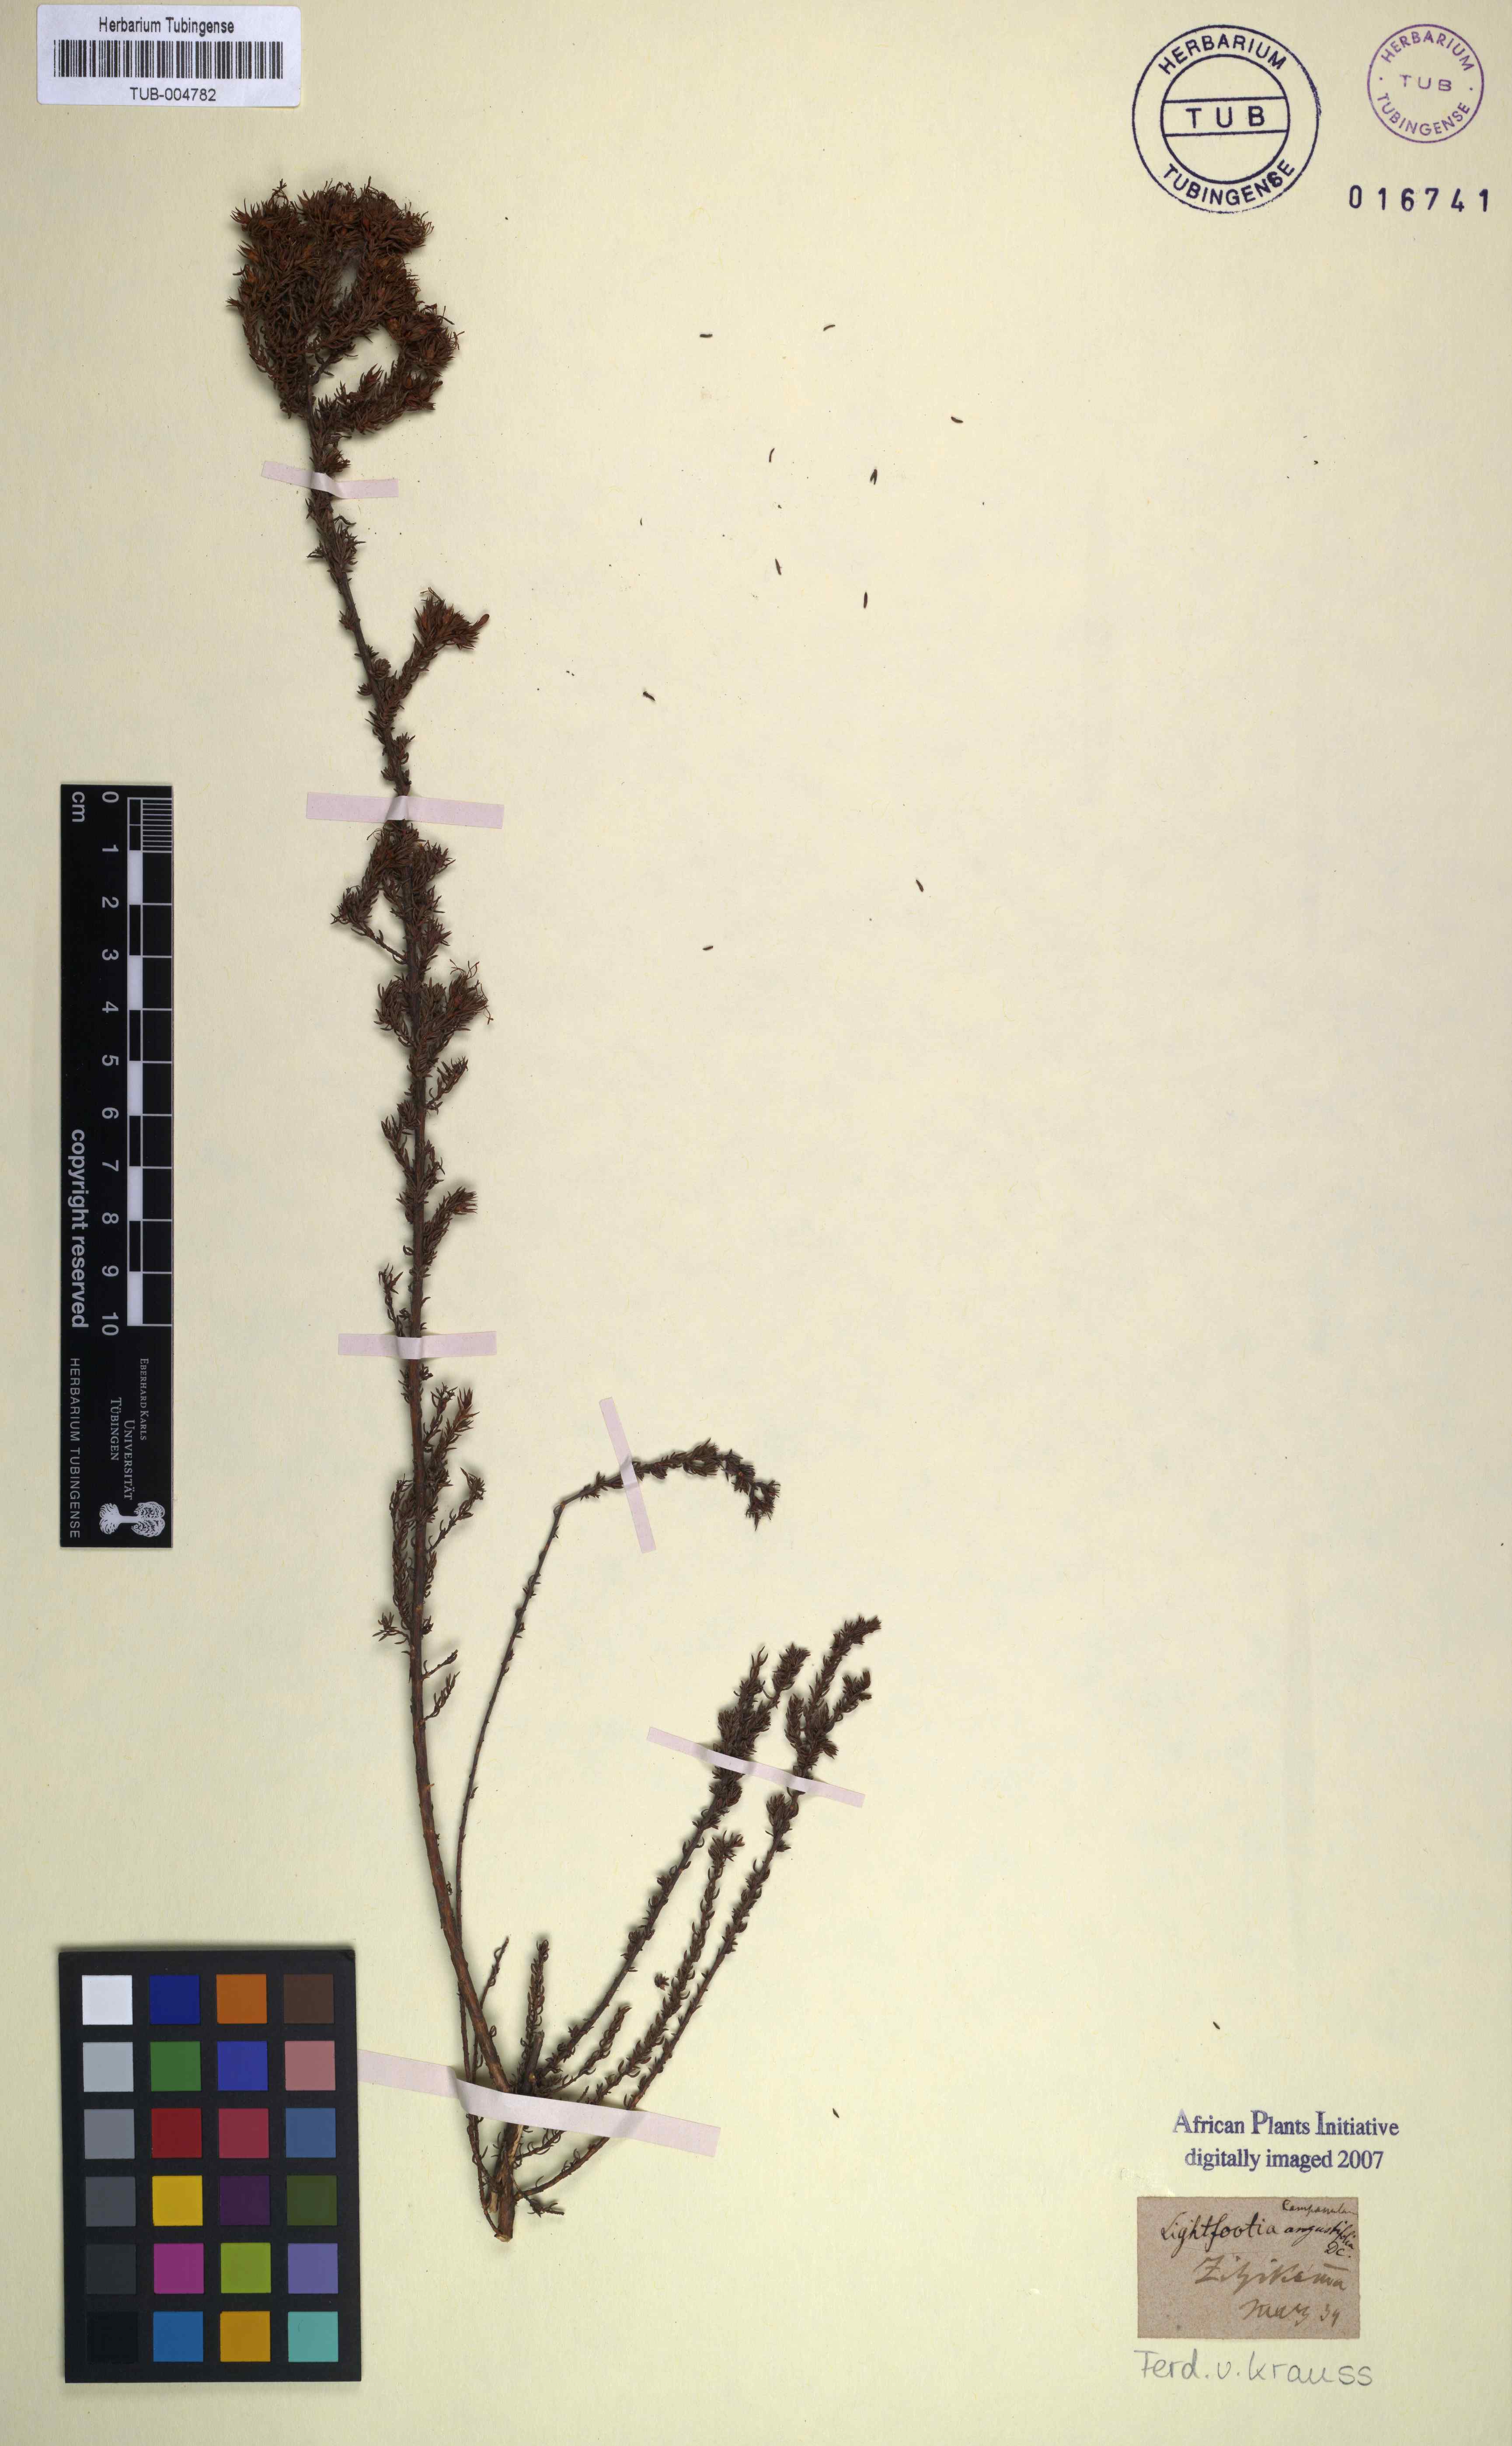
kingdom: Plantae
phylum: Tracheophyta
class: Magnoliopsida
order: Asterales
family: Campanulaceae
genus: Wahlenbergia
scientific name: Wahlenbergia rubens
